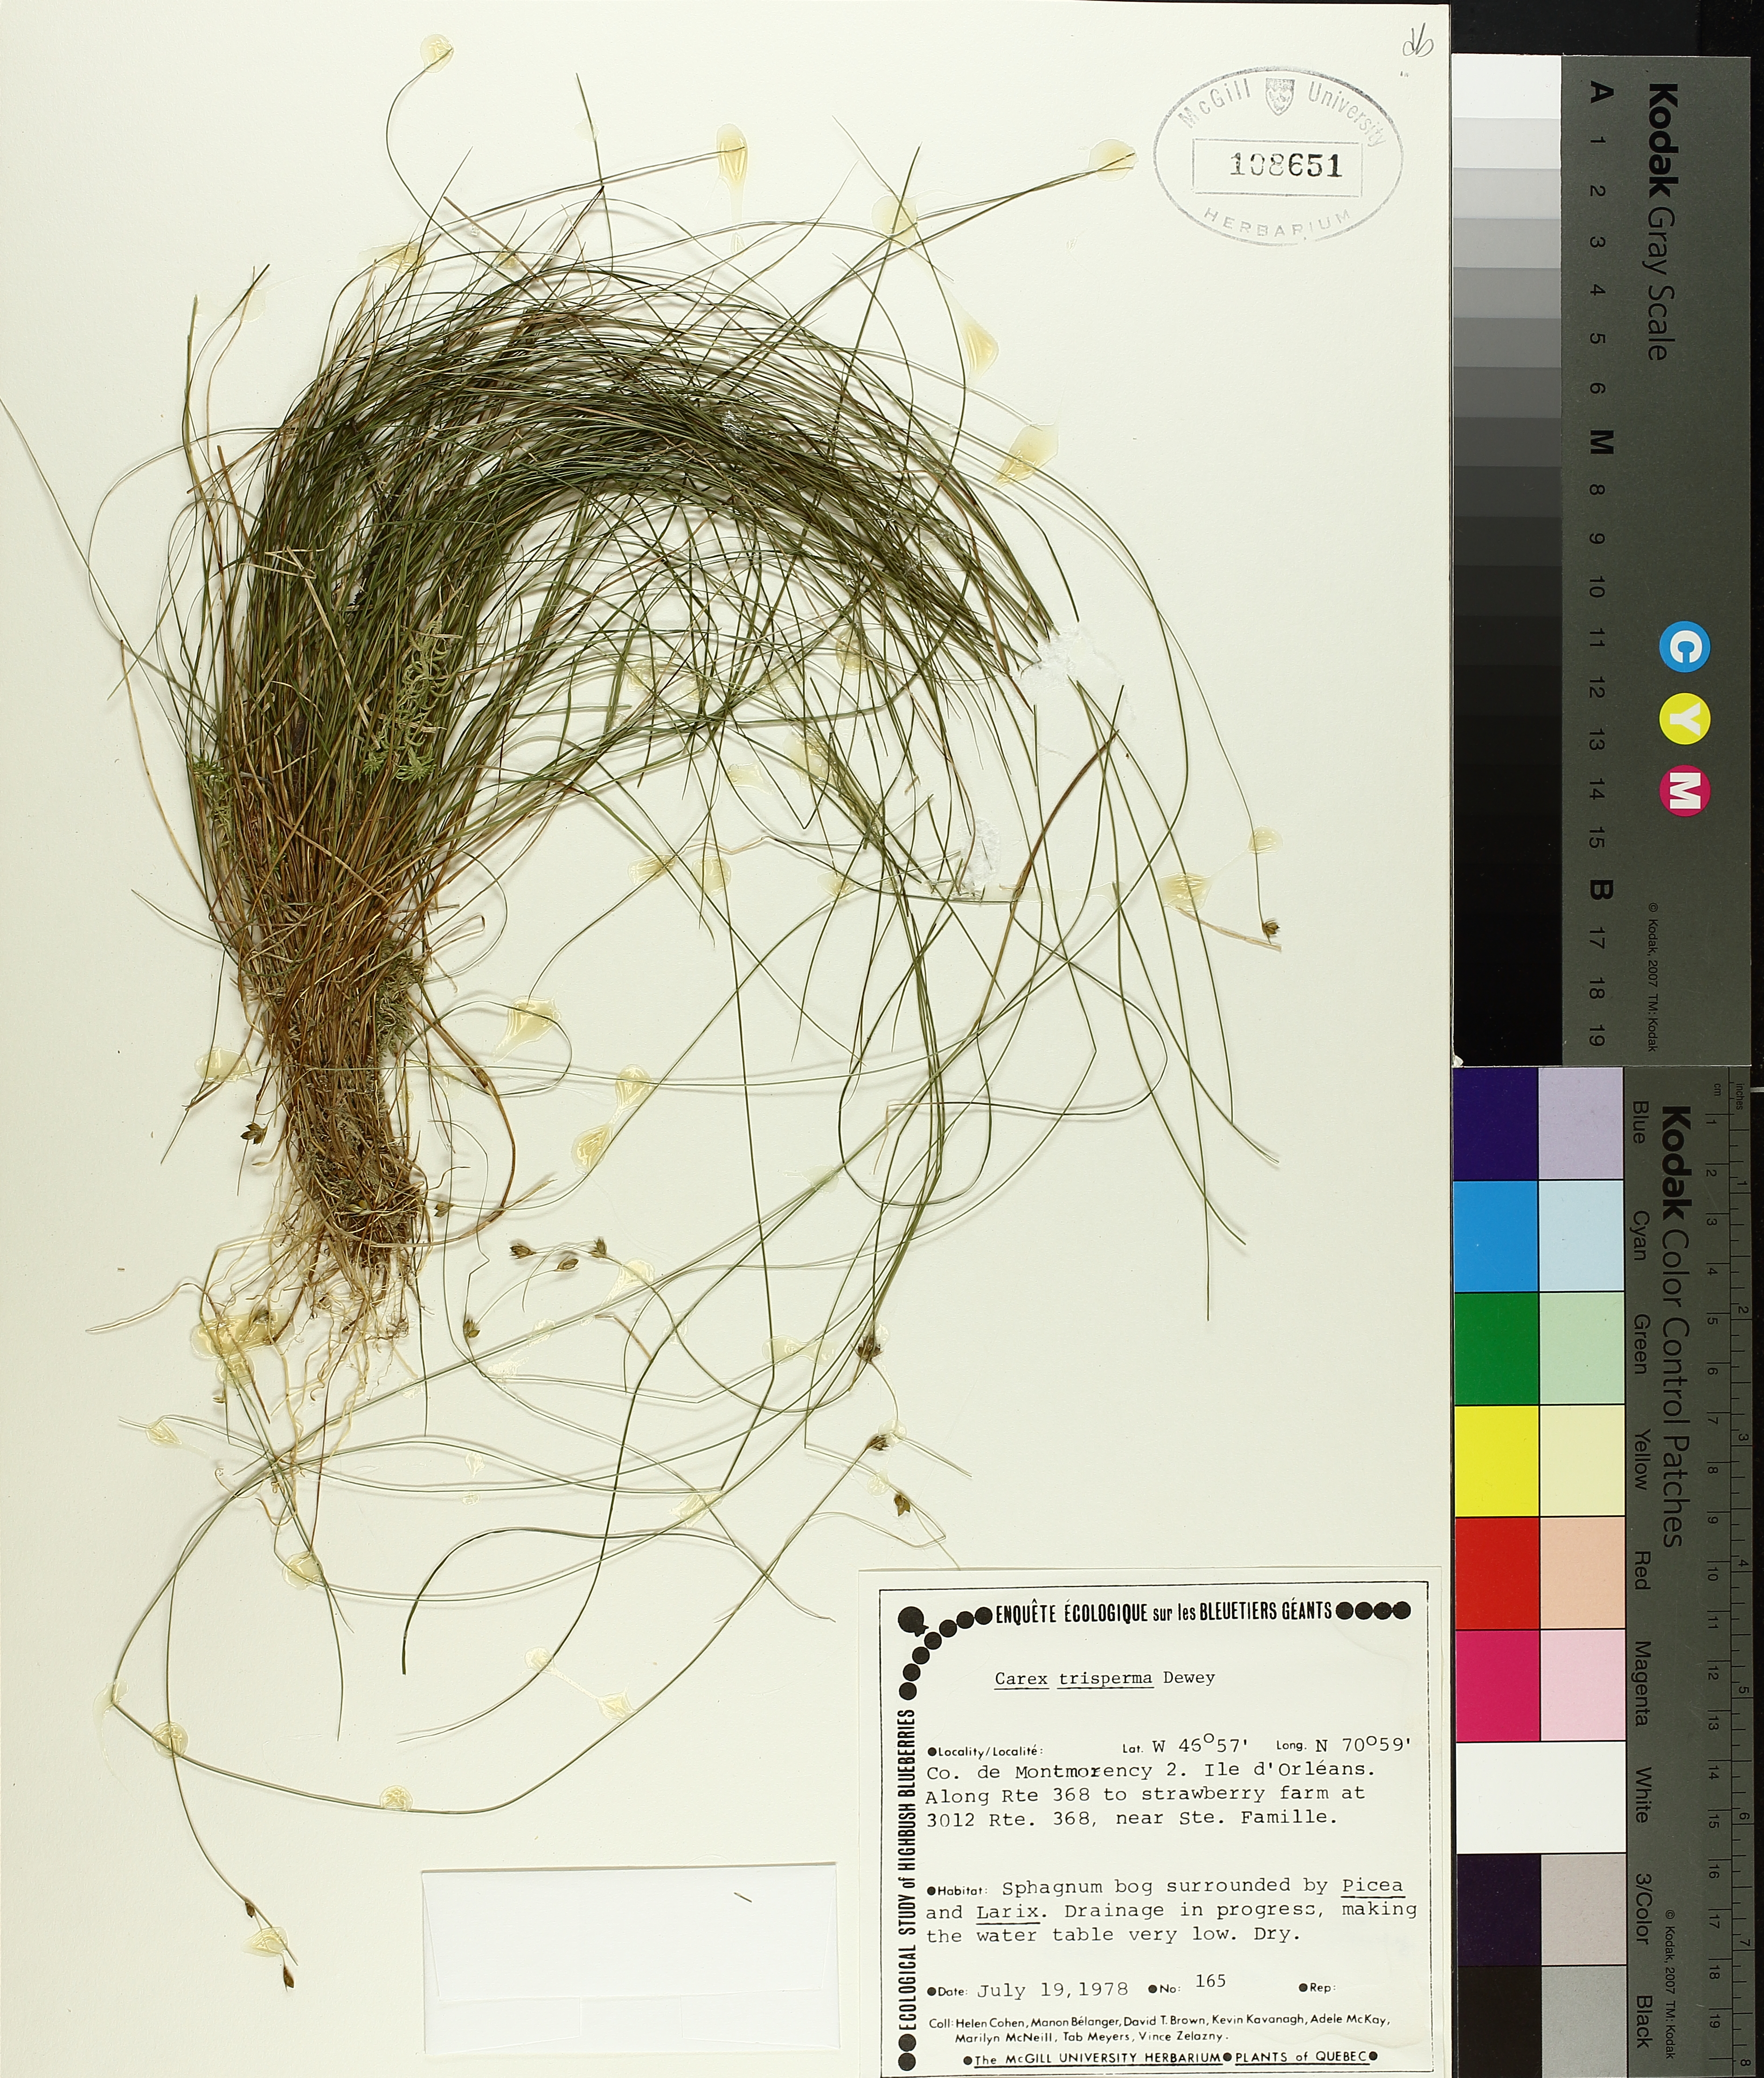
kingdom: Plantae
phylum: Tracheophyta
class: Liliopsida
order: Poales
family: Cyperaceae
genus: Carex
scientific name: Carex trisperma
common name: Three-seeded sedge
